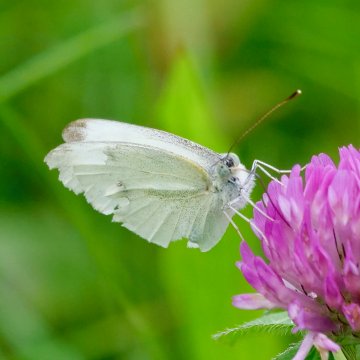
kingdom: Animalia
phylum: Arthropoda
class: Insecta
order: Lepidoptera
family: Pieridae
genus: Pieris
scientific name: Pieris rapae
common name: Cabbage White
